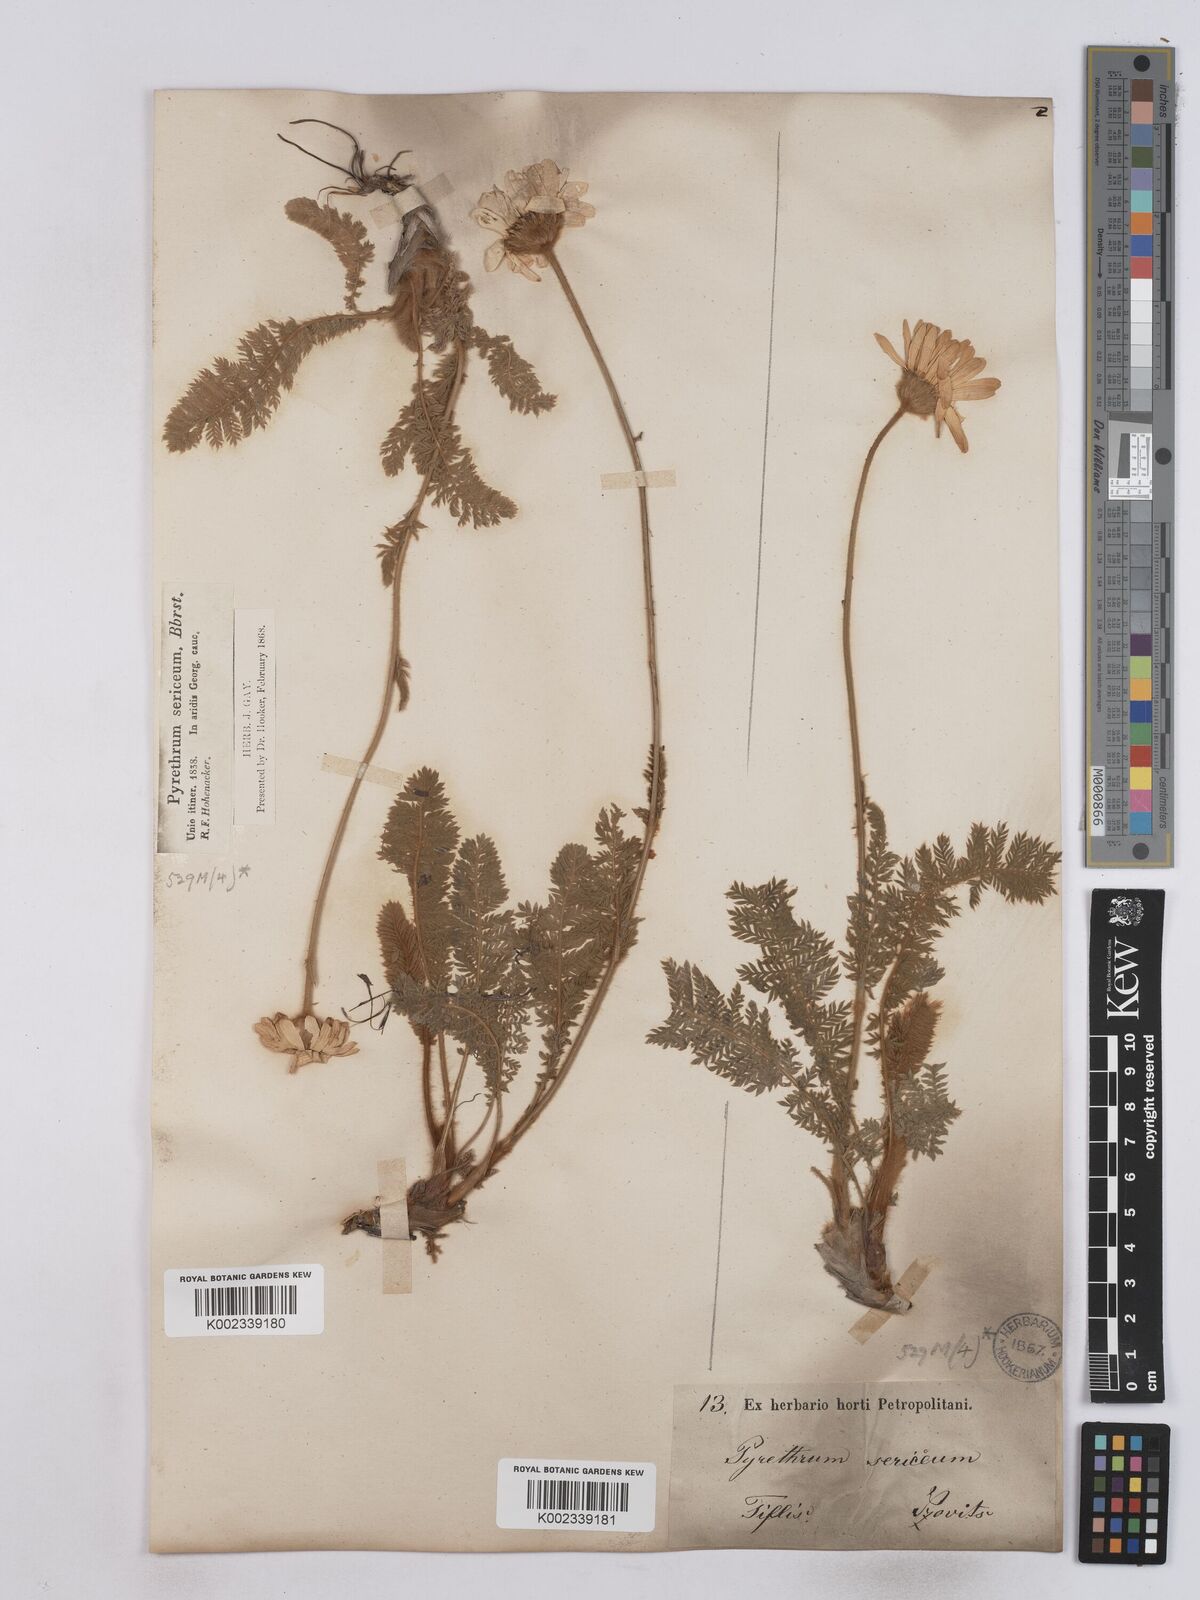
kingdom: Plantae
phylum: Tracheophyta
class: Magnoliopsida
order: Asterales
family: Asteraceae
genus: Tanacetum
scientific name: Tanacetum sericeum
